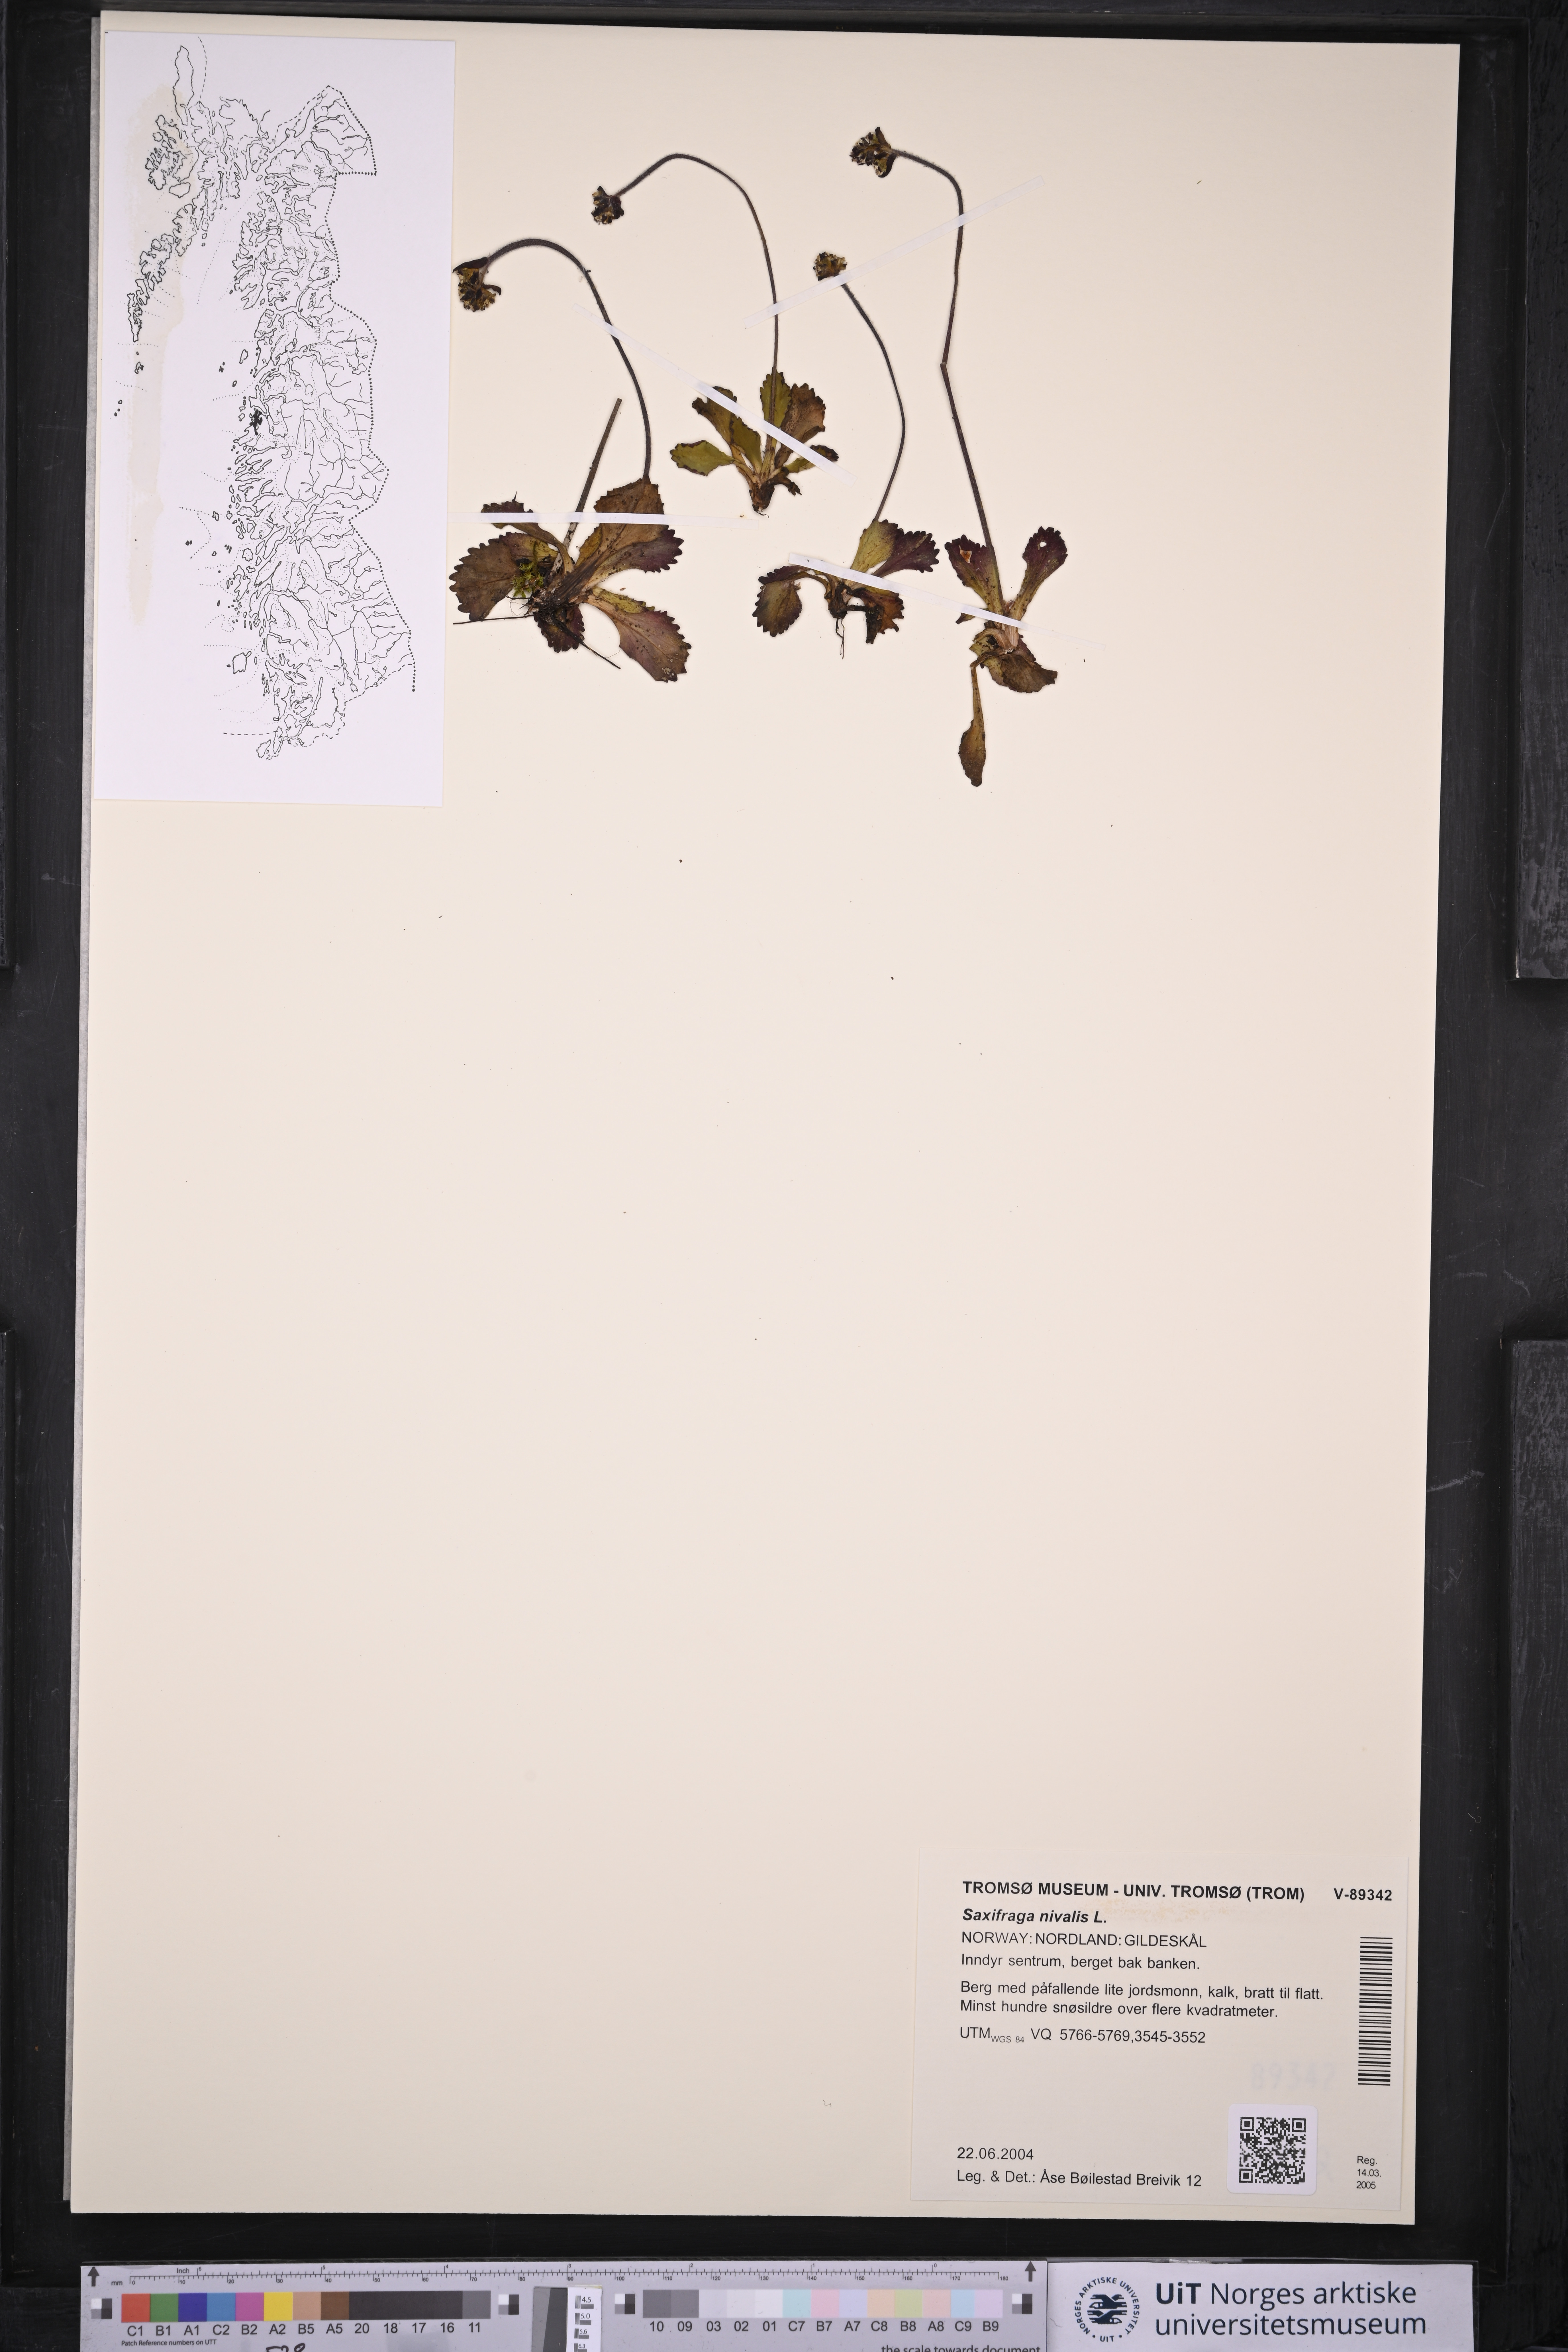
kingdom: Plantae
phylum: Tracheophyta
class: Magnoliopsida
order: Saxifragales
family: Saxifragaceae
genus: Micranthes
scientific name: Micranthes nivalis
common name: Alpine saxifrage
